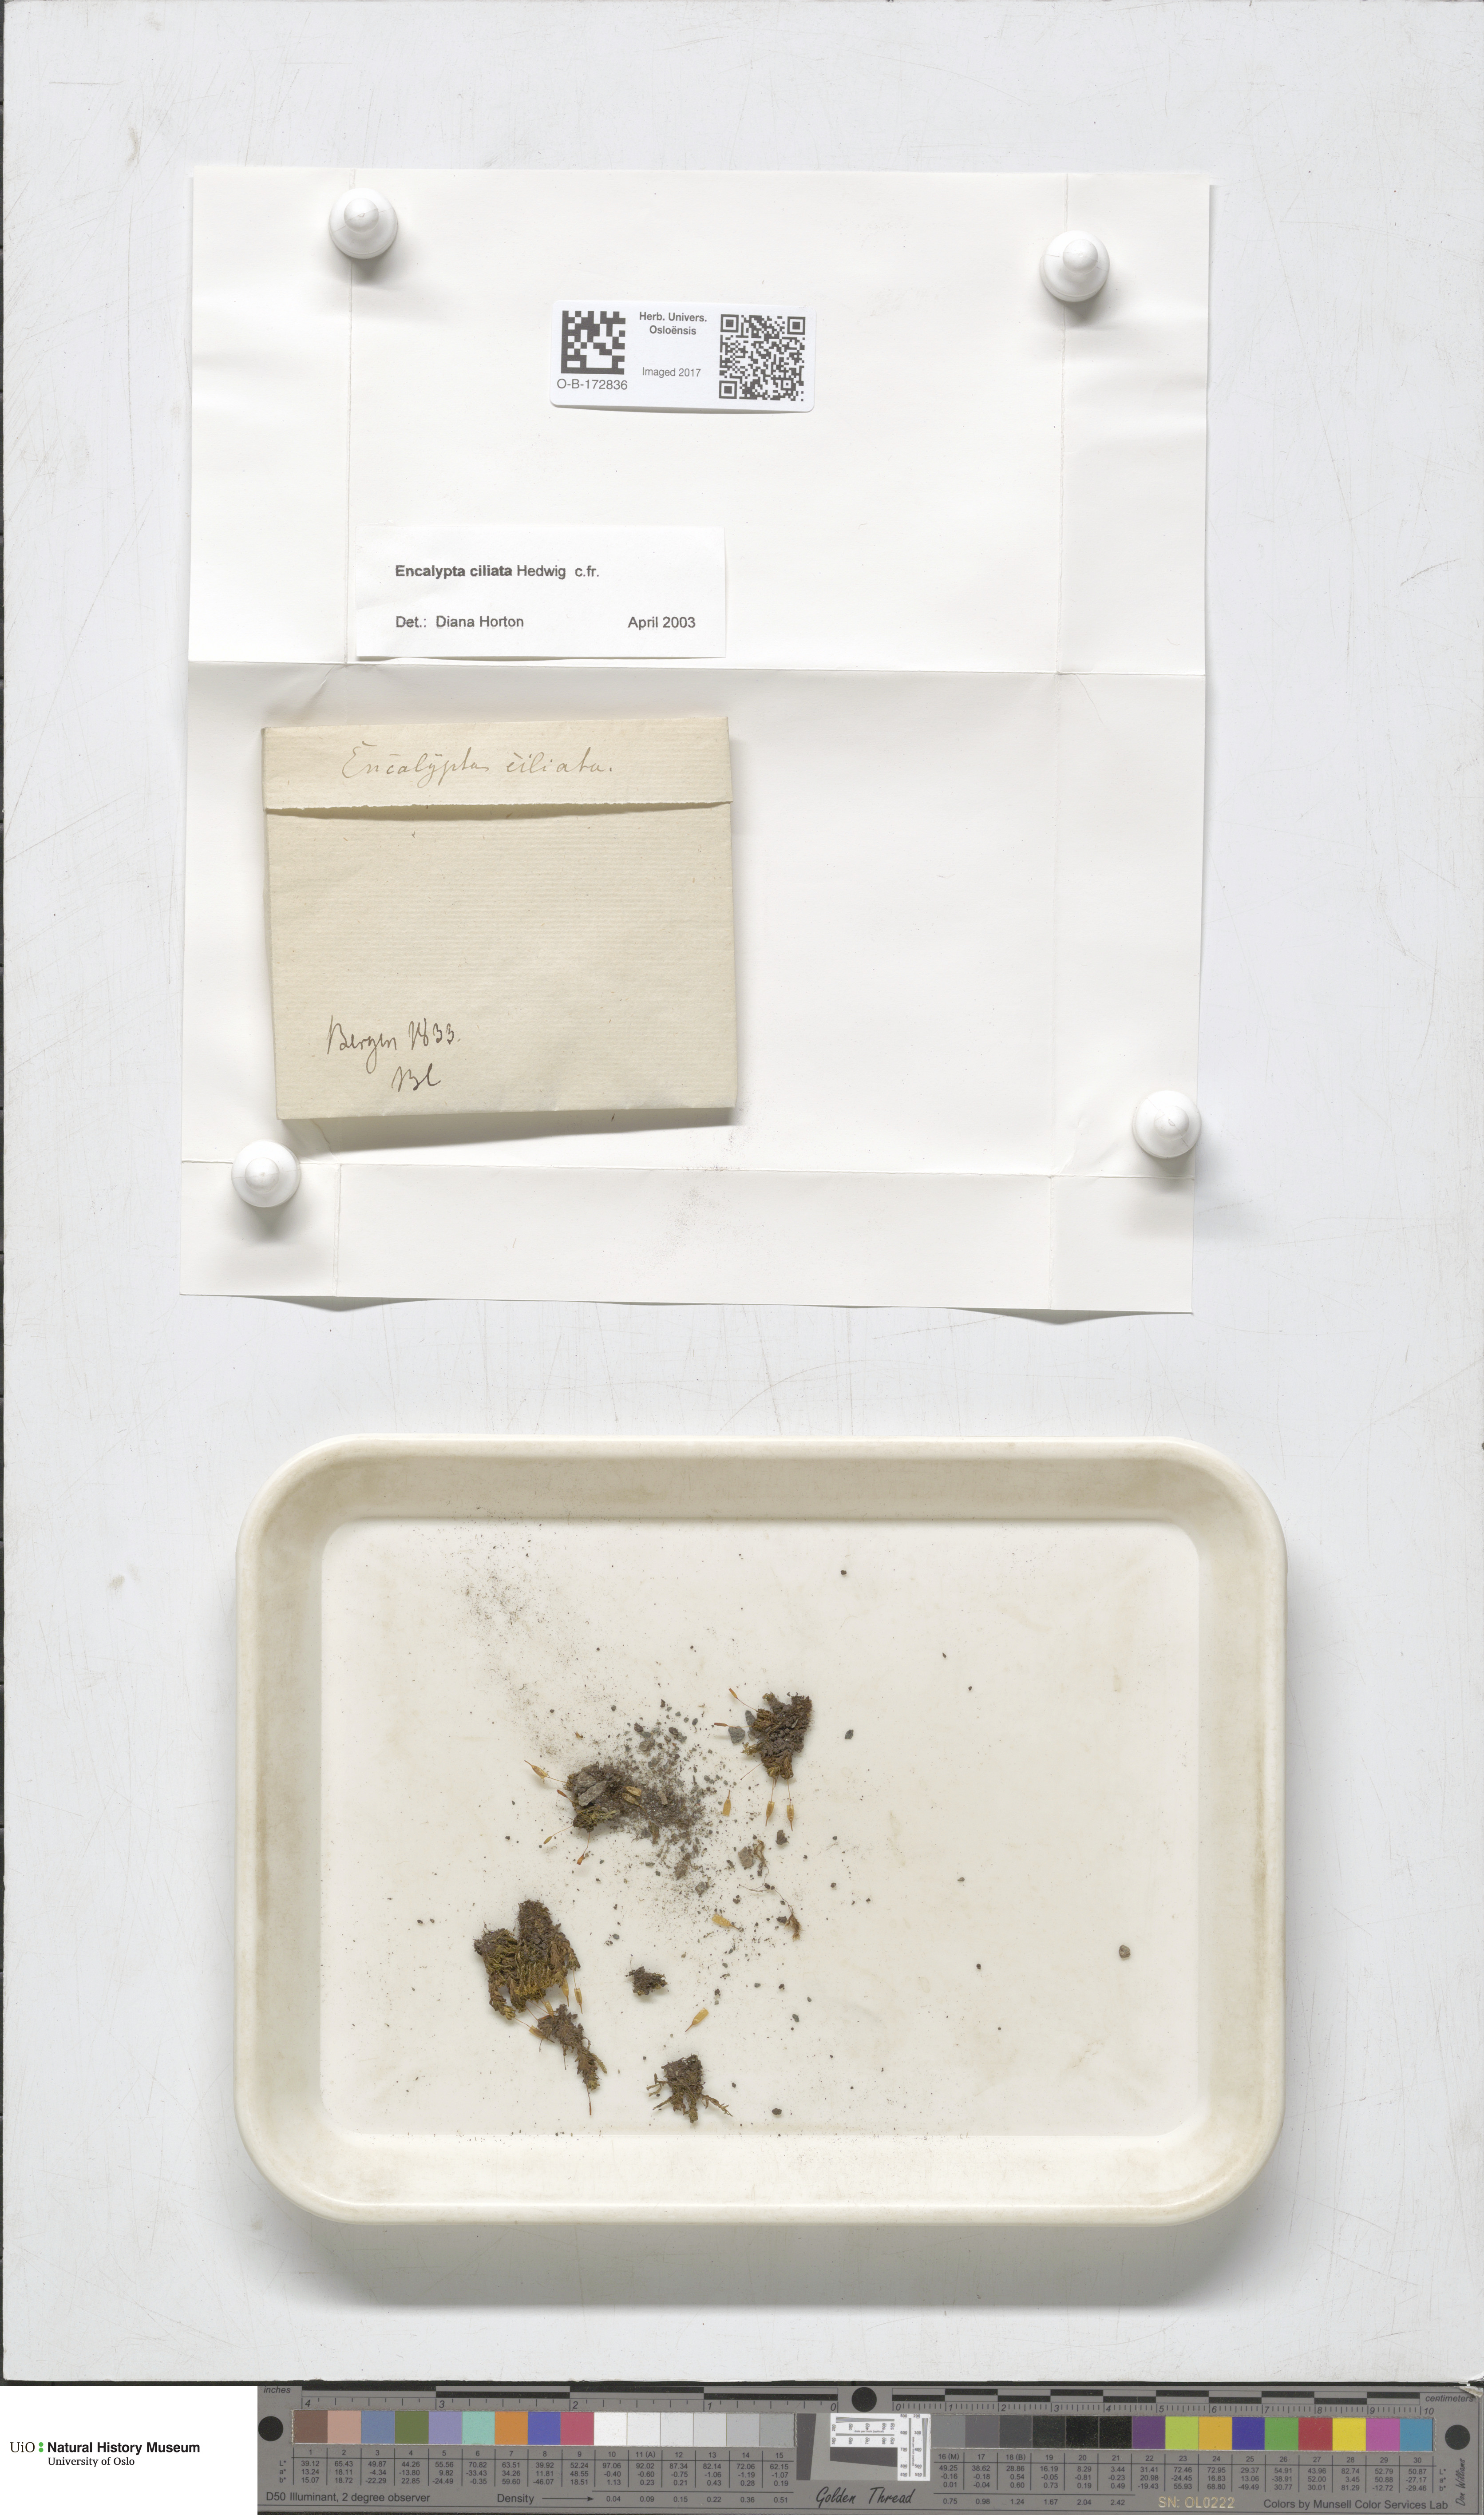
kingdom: Plantae
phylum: Bryophyta
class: Bryopsida
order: Encalyptales
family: Encalyptaceae
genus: Encalypta
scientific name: Encalypta ciliata
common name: Fringed extinguisher-moss
